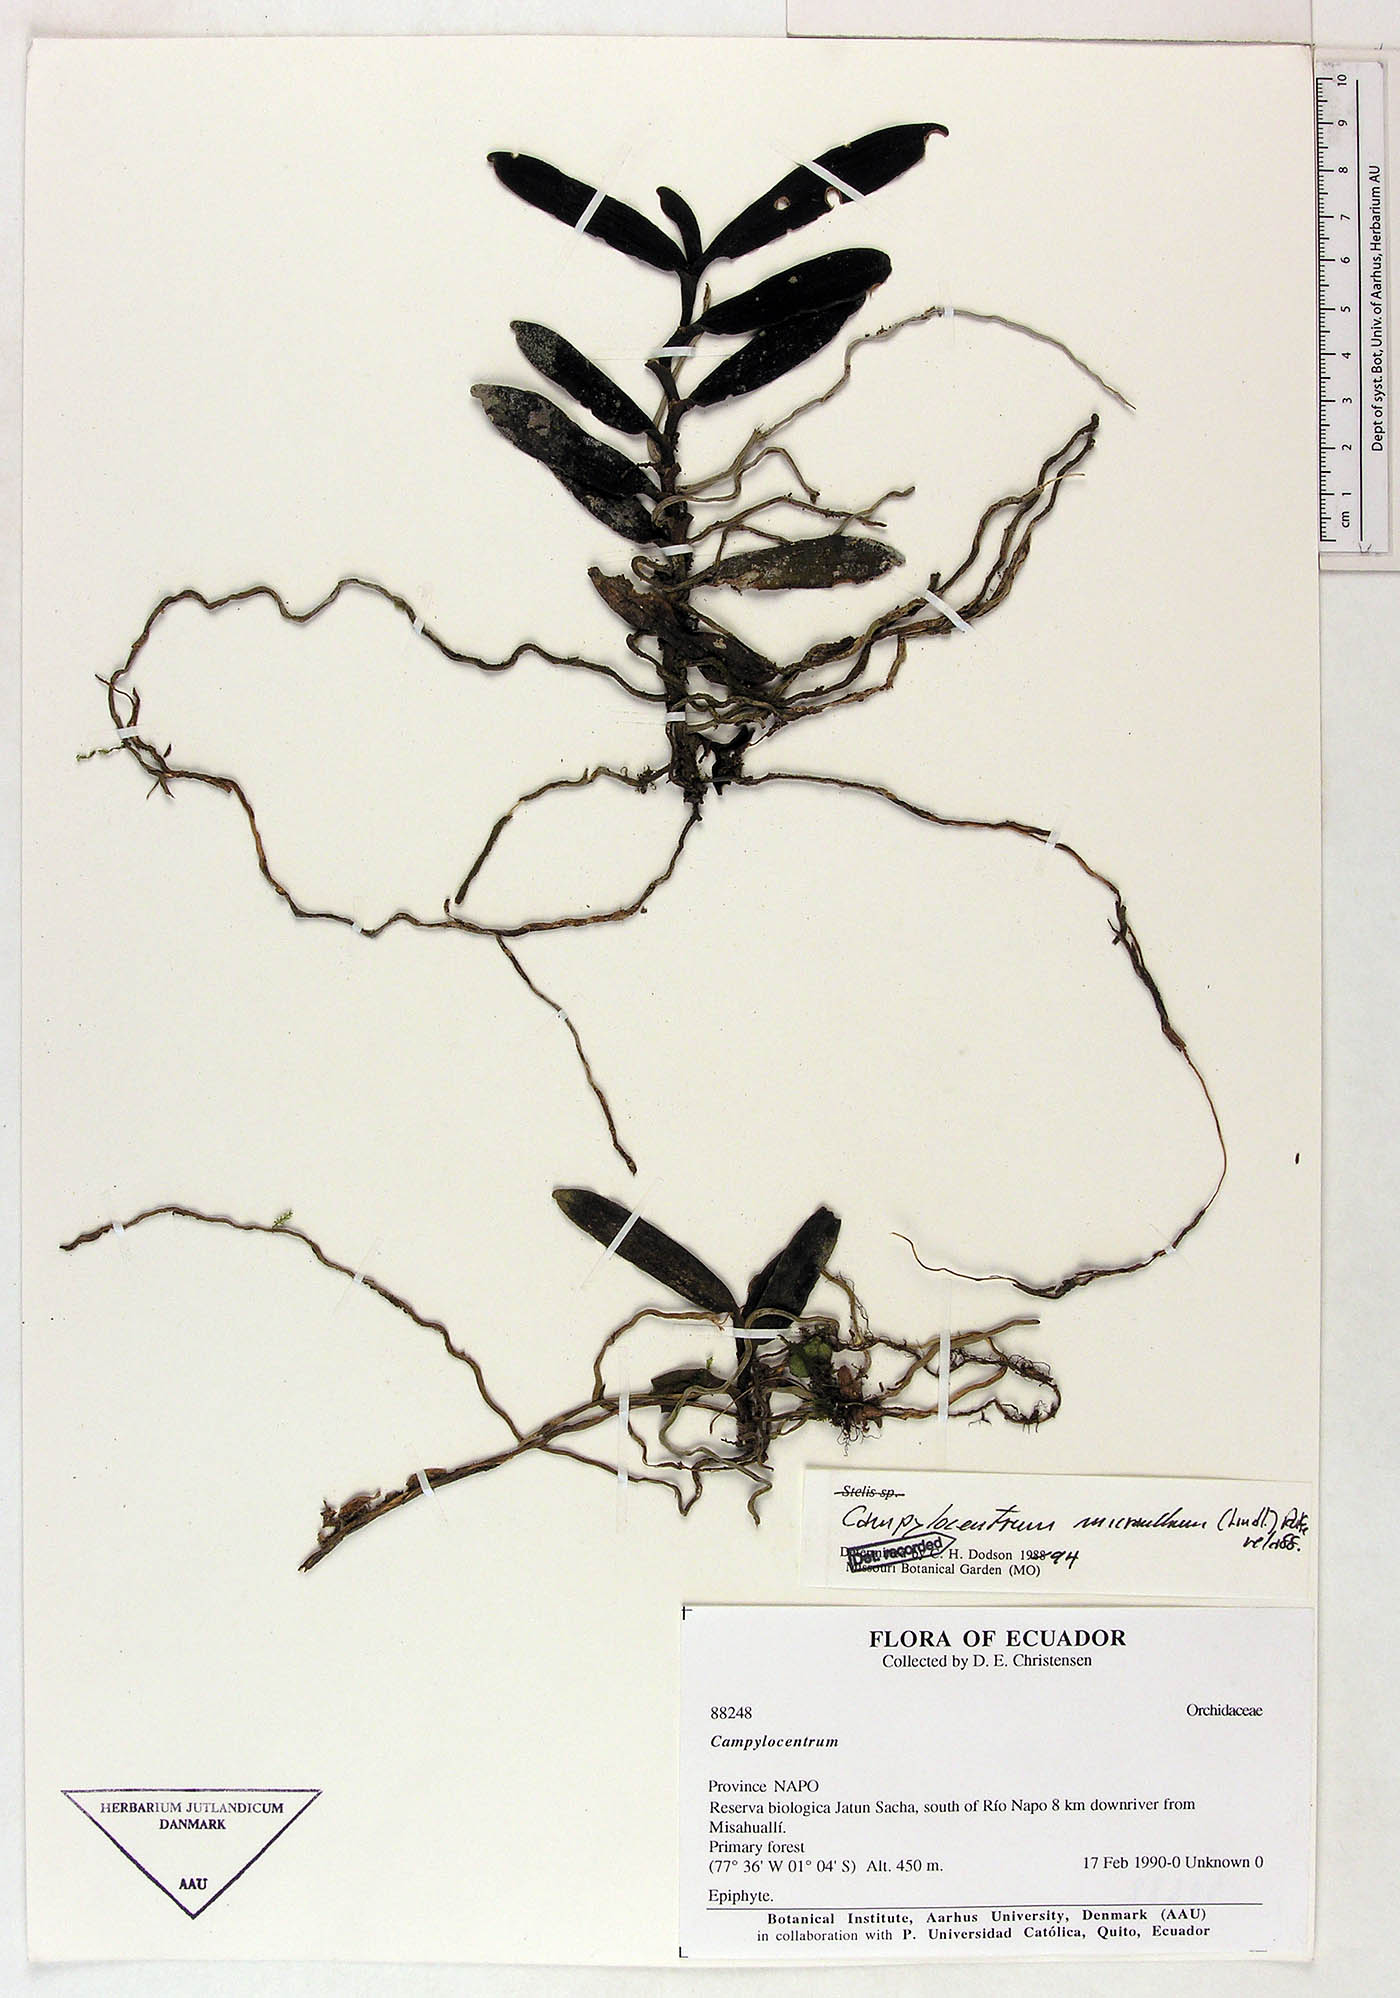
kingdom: Plantae
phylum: Tracheophyta
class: Liliopsida
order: Asparagales
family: Orchidaceae
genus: Campylocentrum
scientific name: Campylocentrum micranthum
